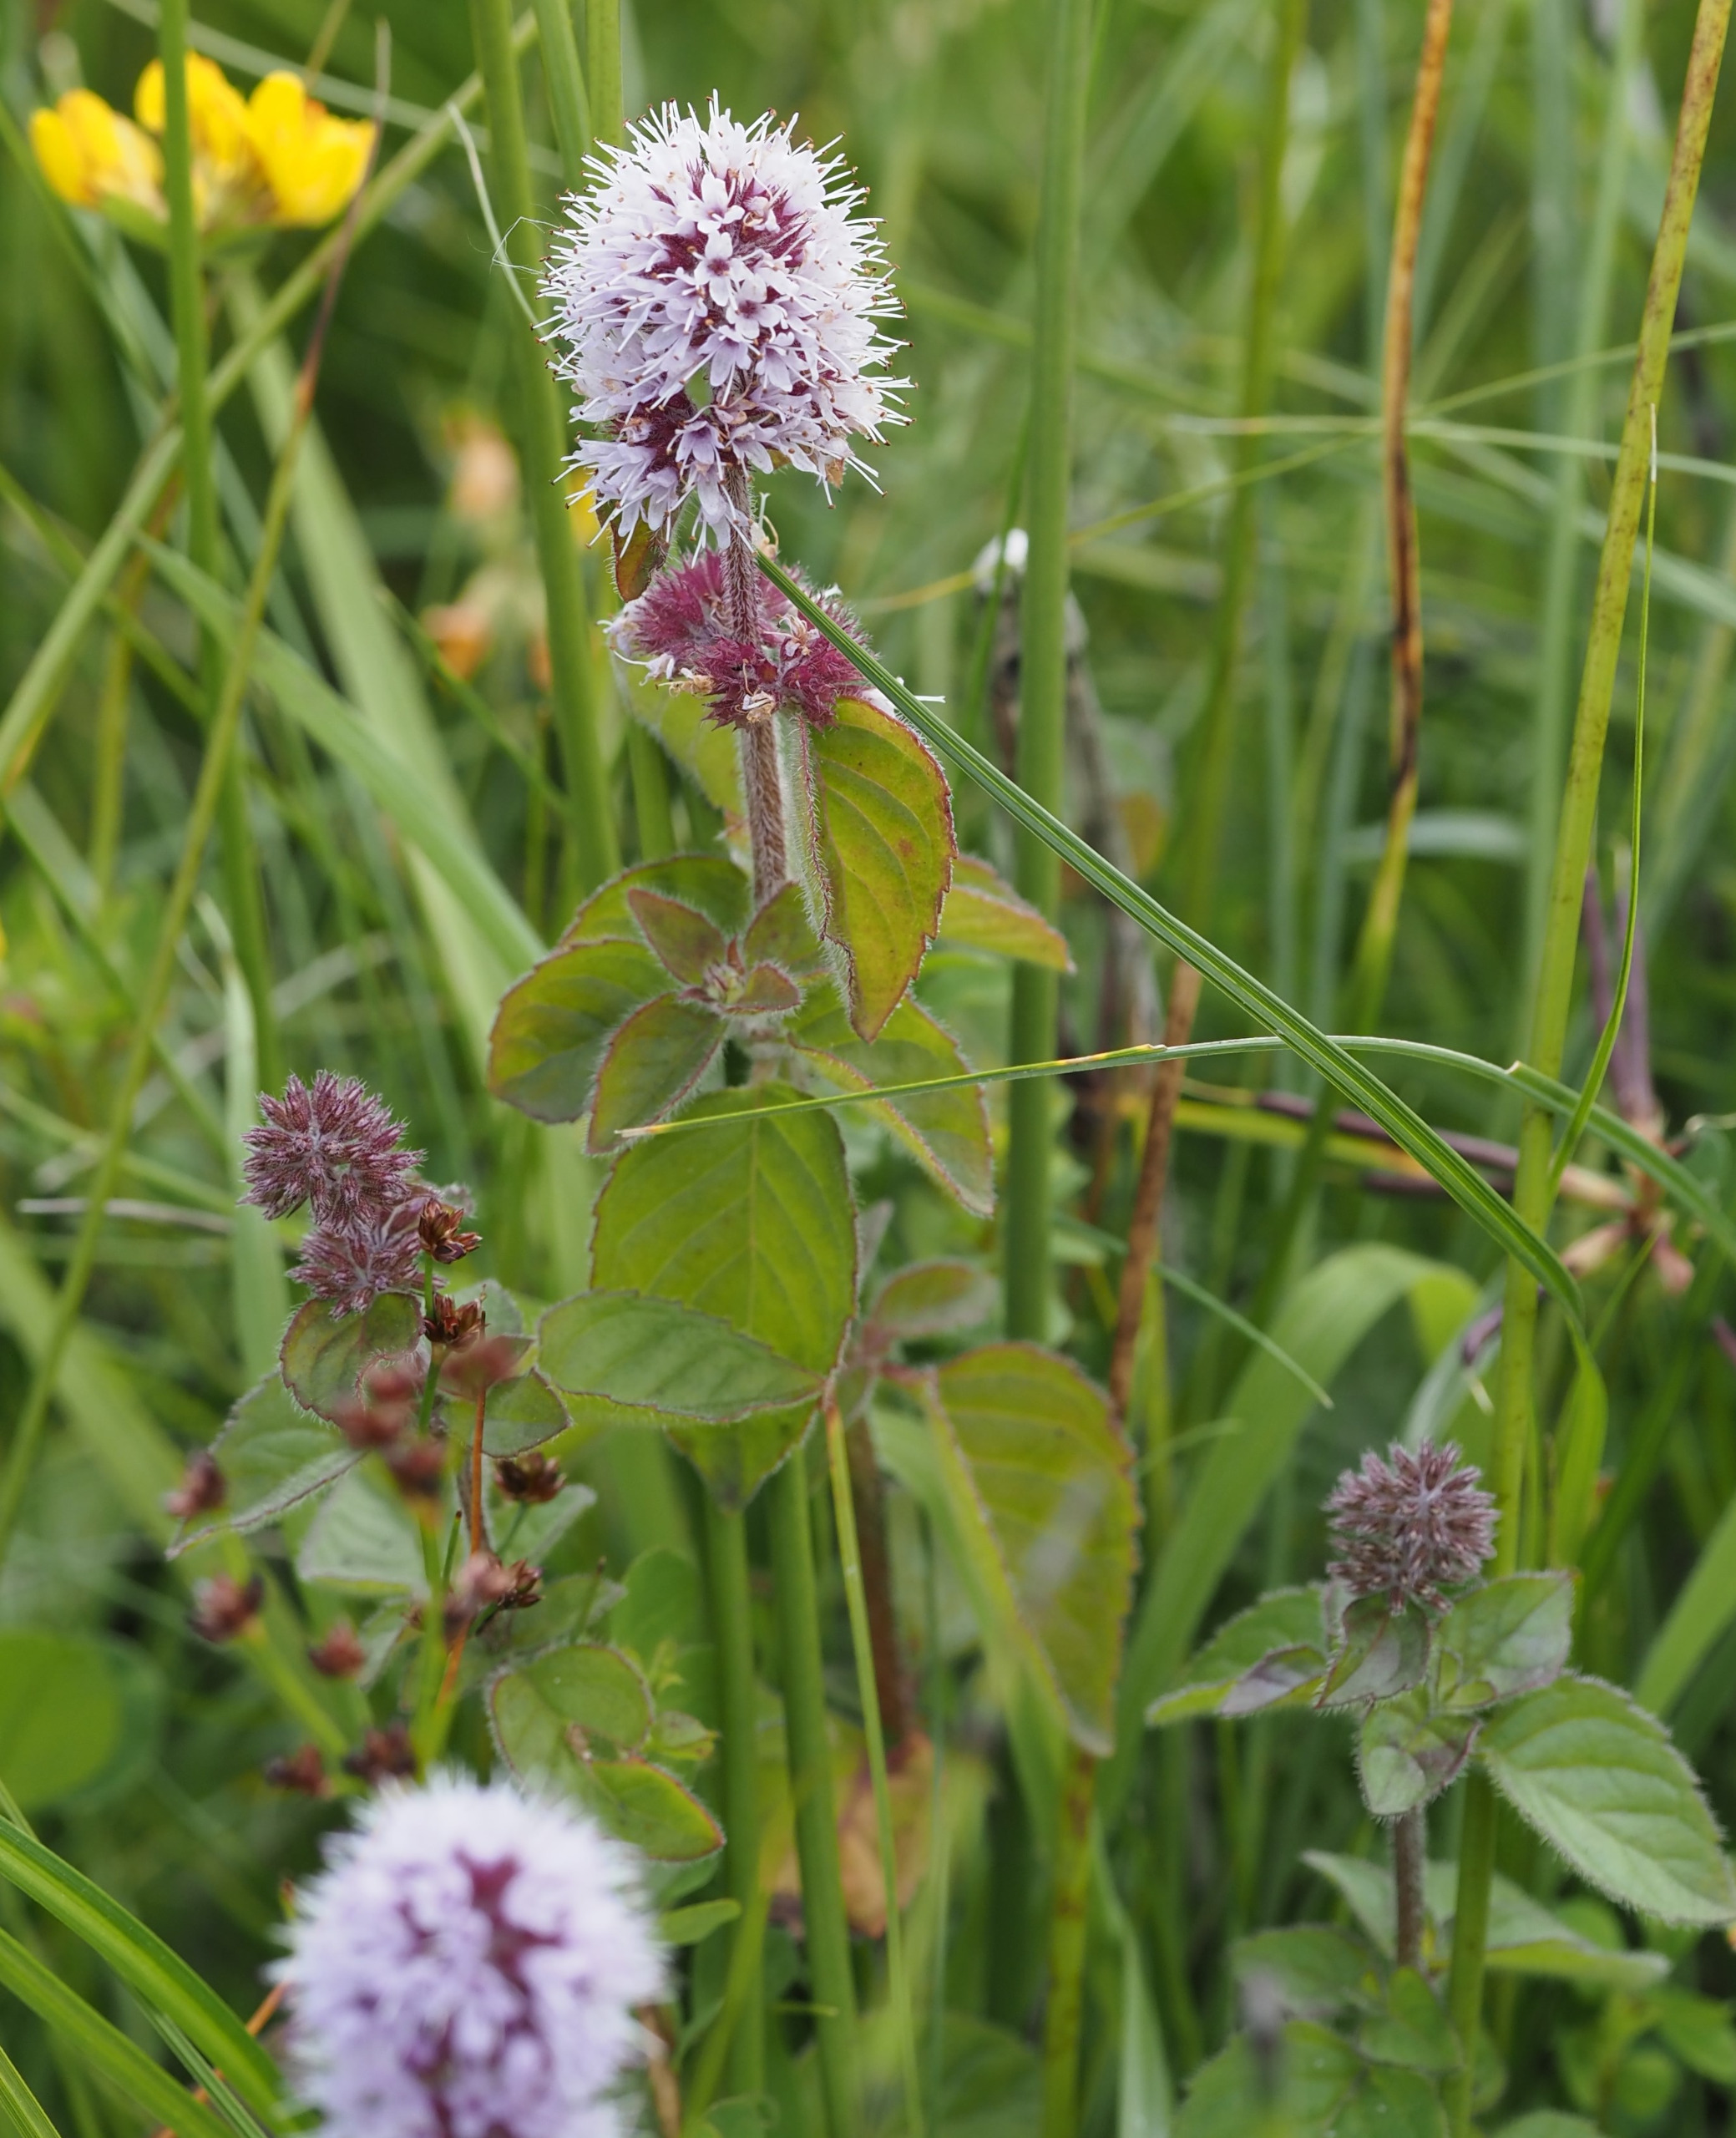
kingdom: Plantae
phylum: Tracheophyta
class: Magnoliopsida
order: Lamiales
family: Lamiaceae
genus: Mentha
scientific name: Mentha aquatica
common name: Vand-mynte
